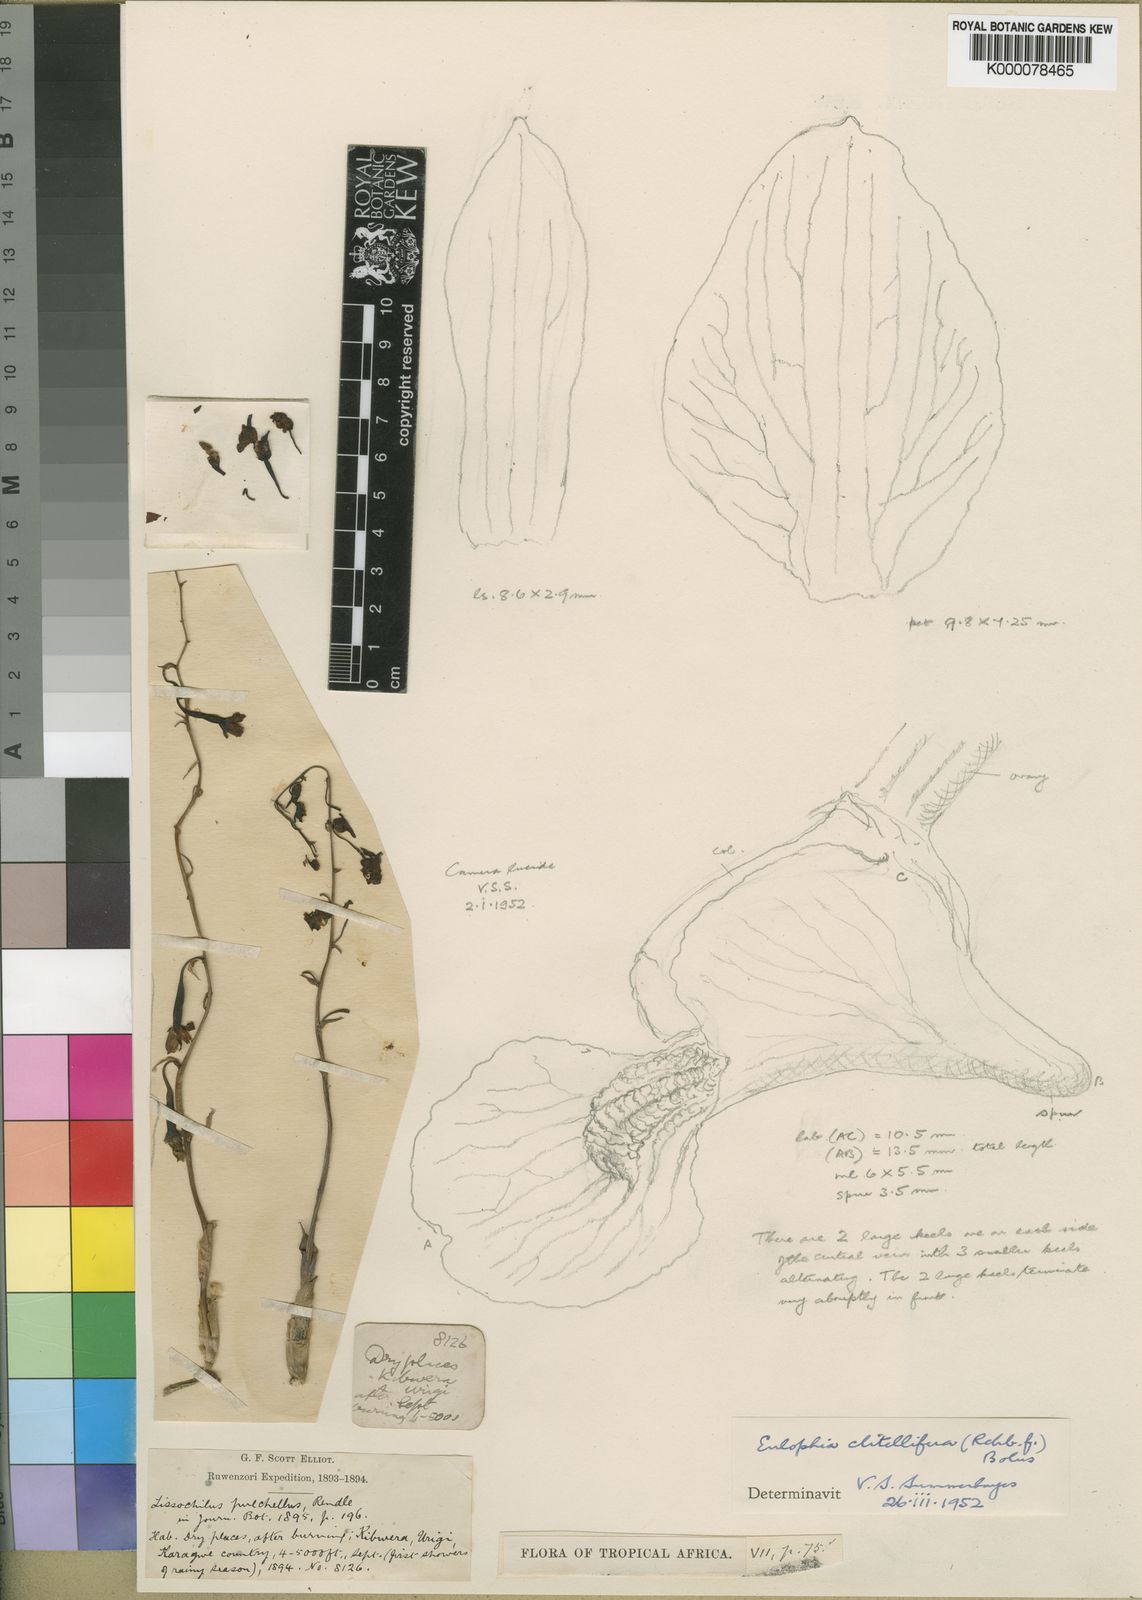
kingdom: Plantae
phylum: Tracheophyta
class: Liliopsida
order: Asparagales
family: Orchidaceae
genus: Eulophia
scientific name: Eulophia clitellifera
